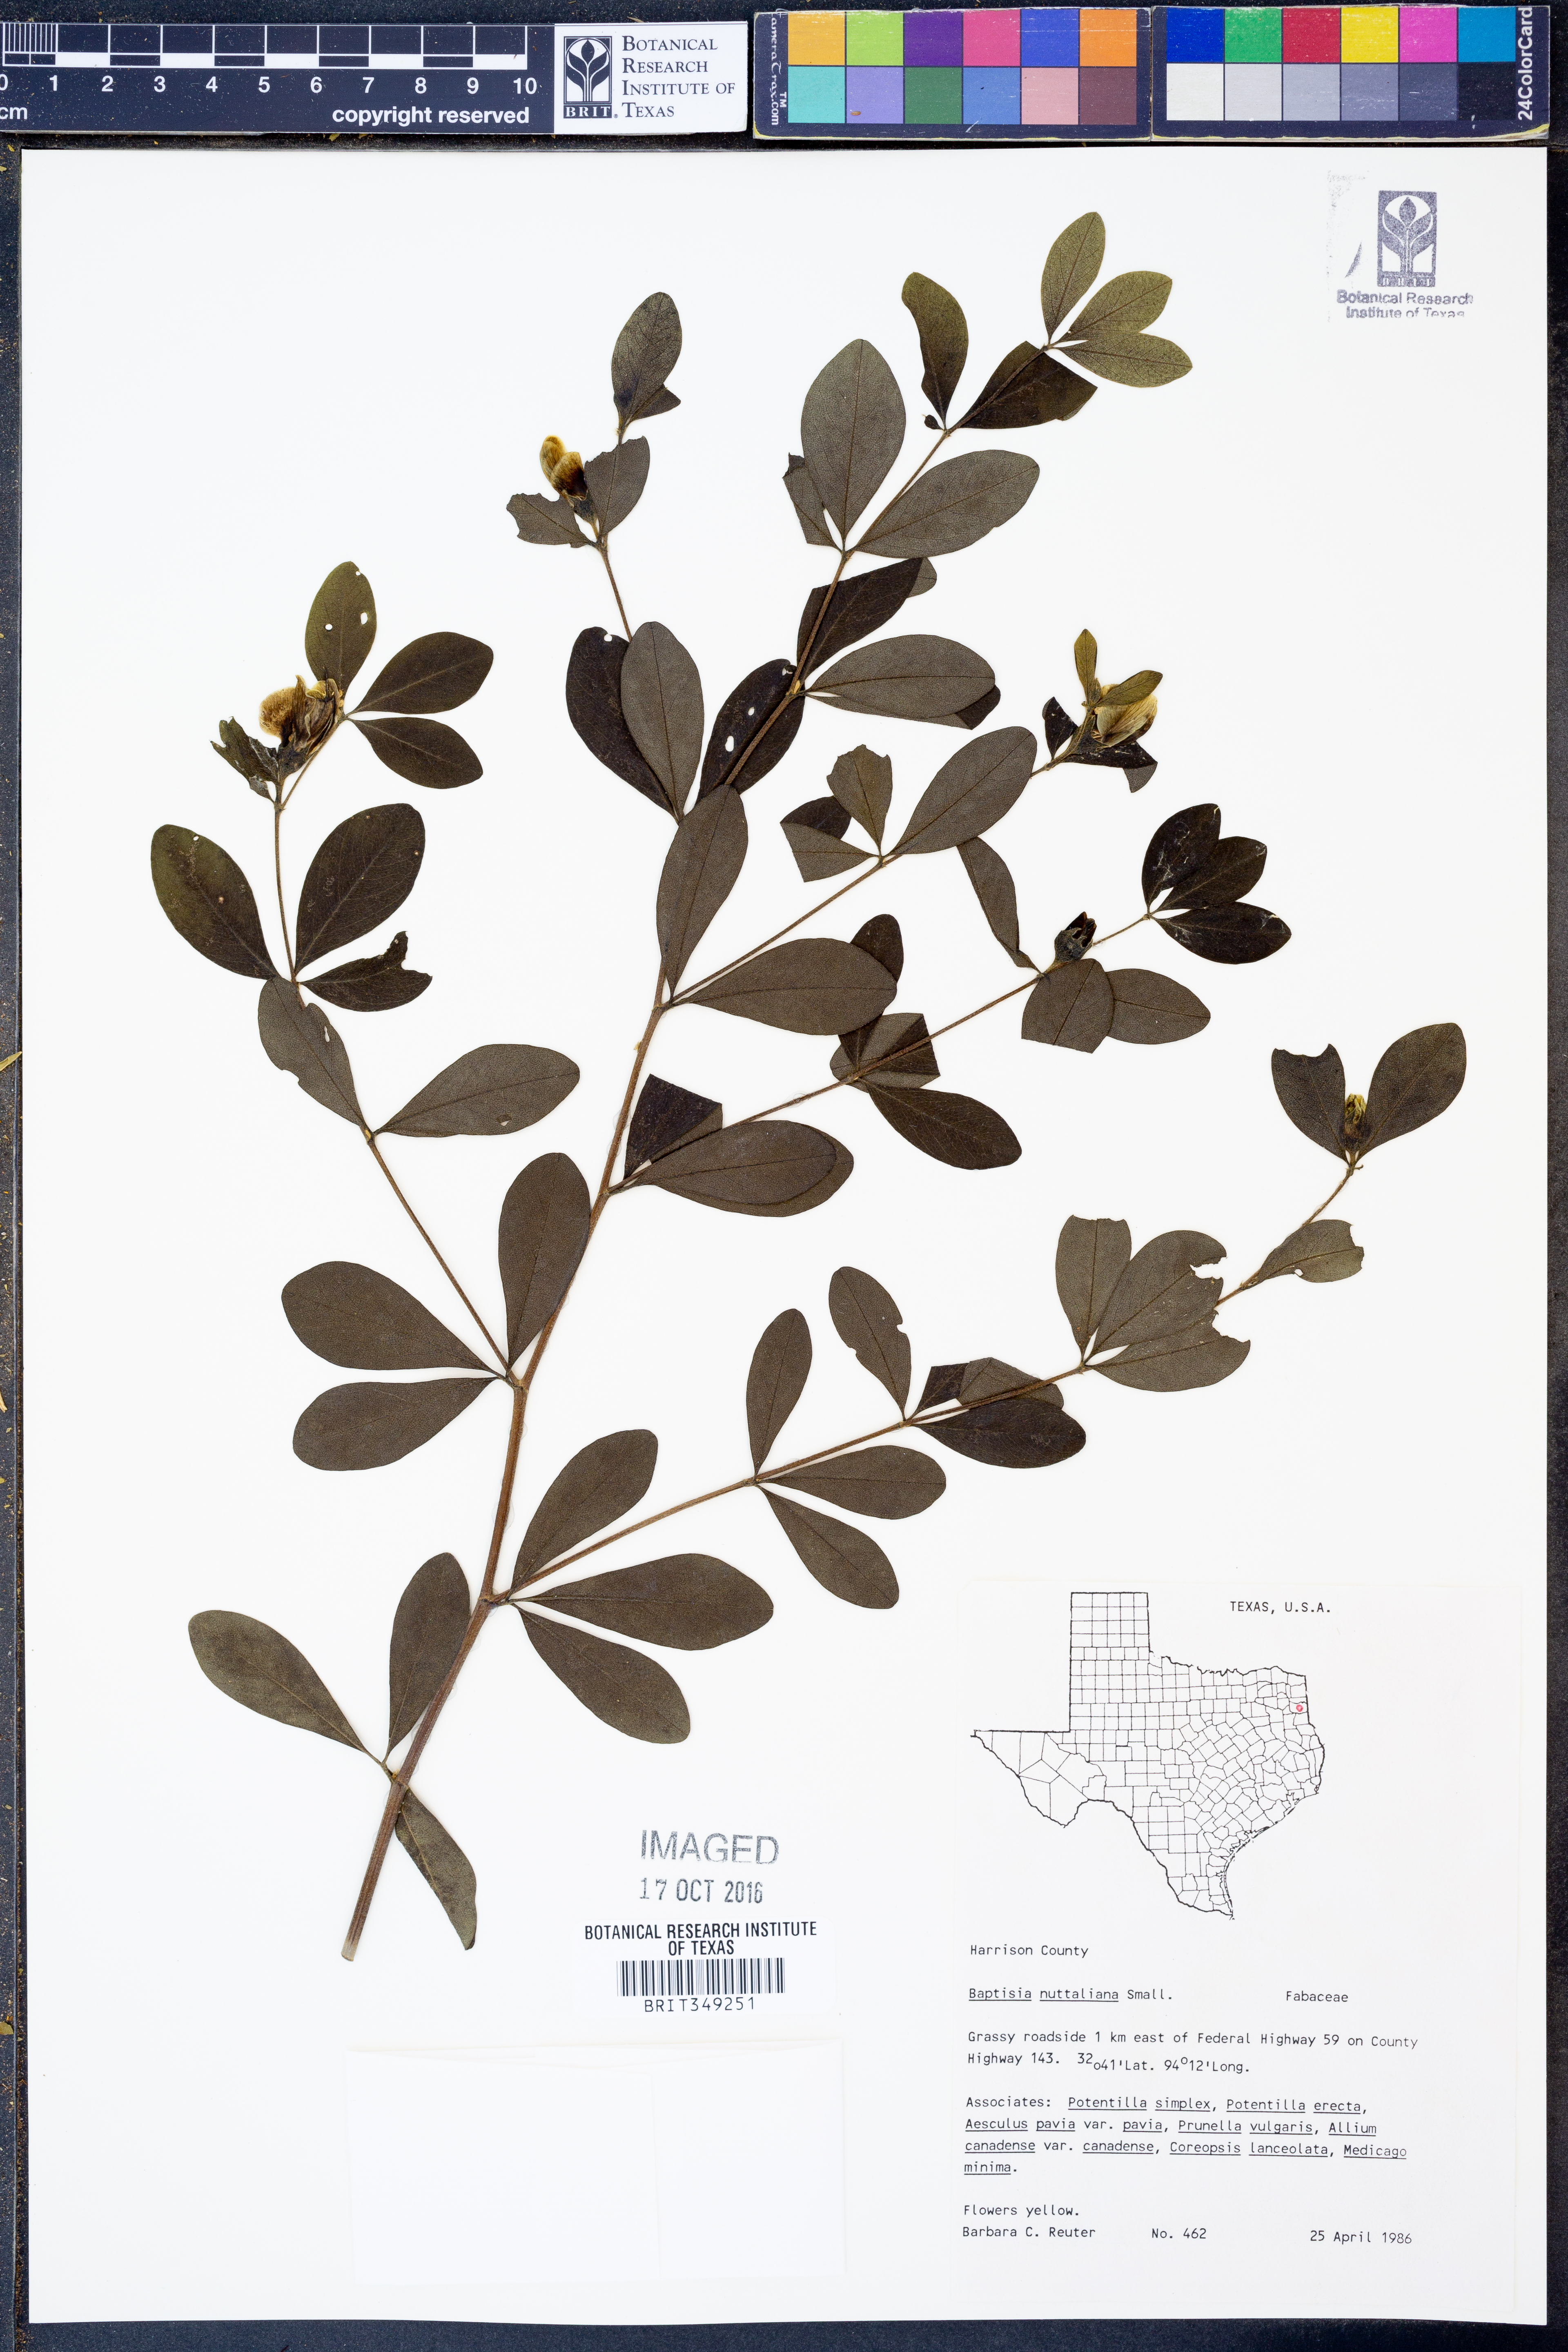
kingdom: Plantae
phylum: Tracheophyta
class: Magnoliopsida
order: Fabales
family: Fabaceae
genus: Baptisia
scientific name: Baptisia nuttalliana
